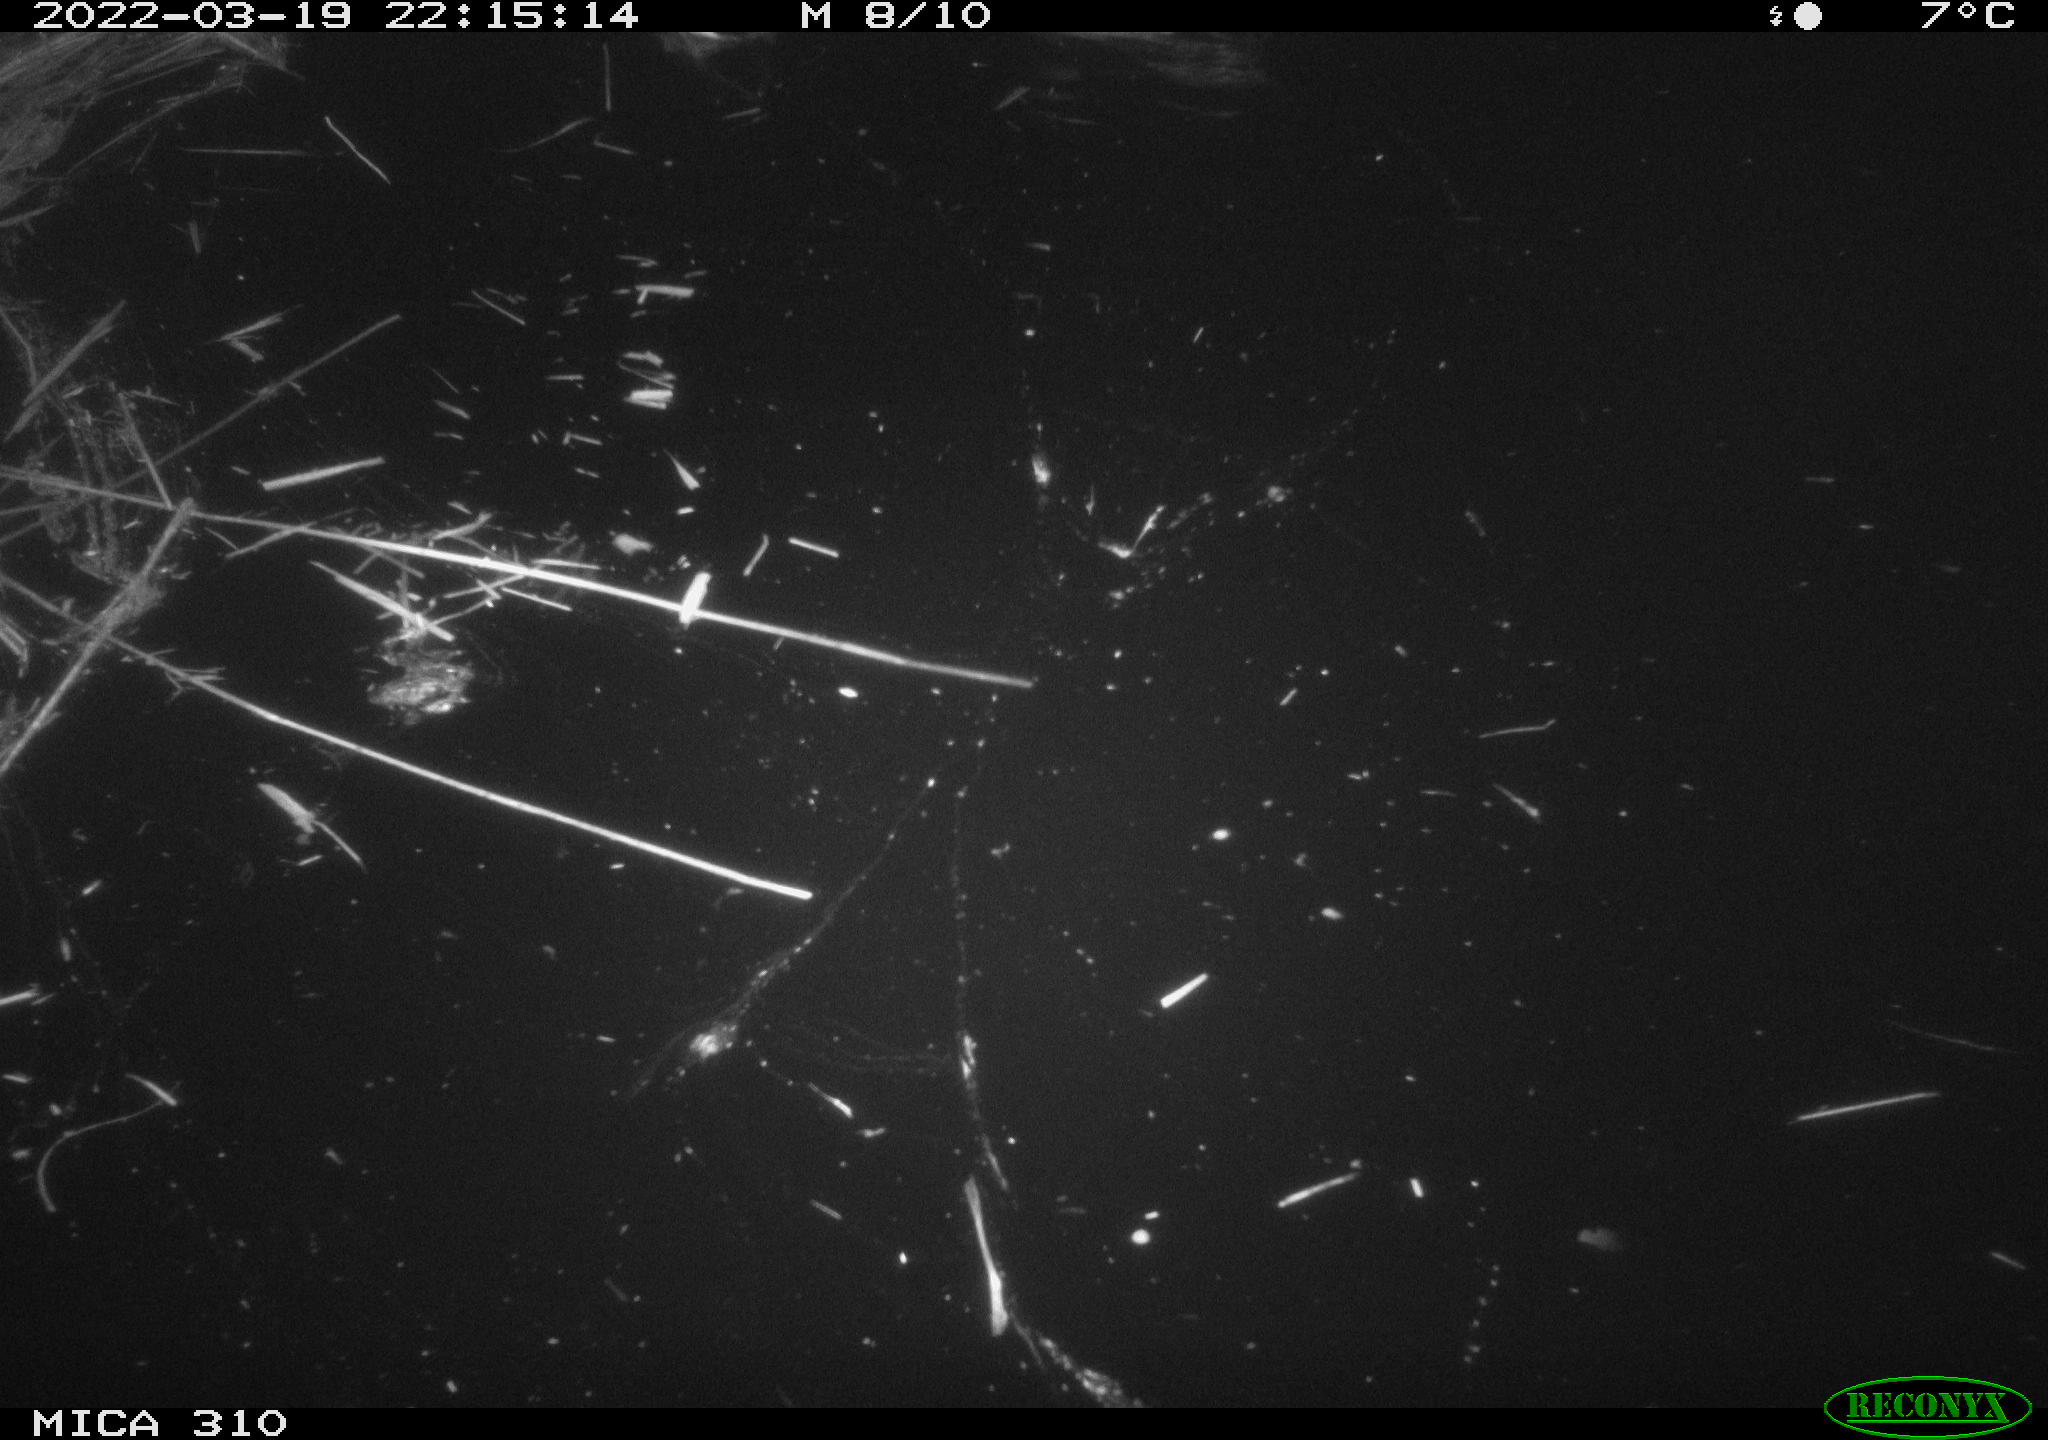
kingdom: Animalia
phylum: Chordata
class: Aves
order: Anseriformes
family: Anatidae
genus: Anas
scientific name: Anas platyrhynchos
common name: Mallard
